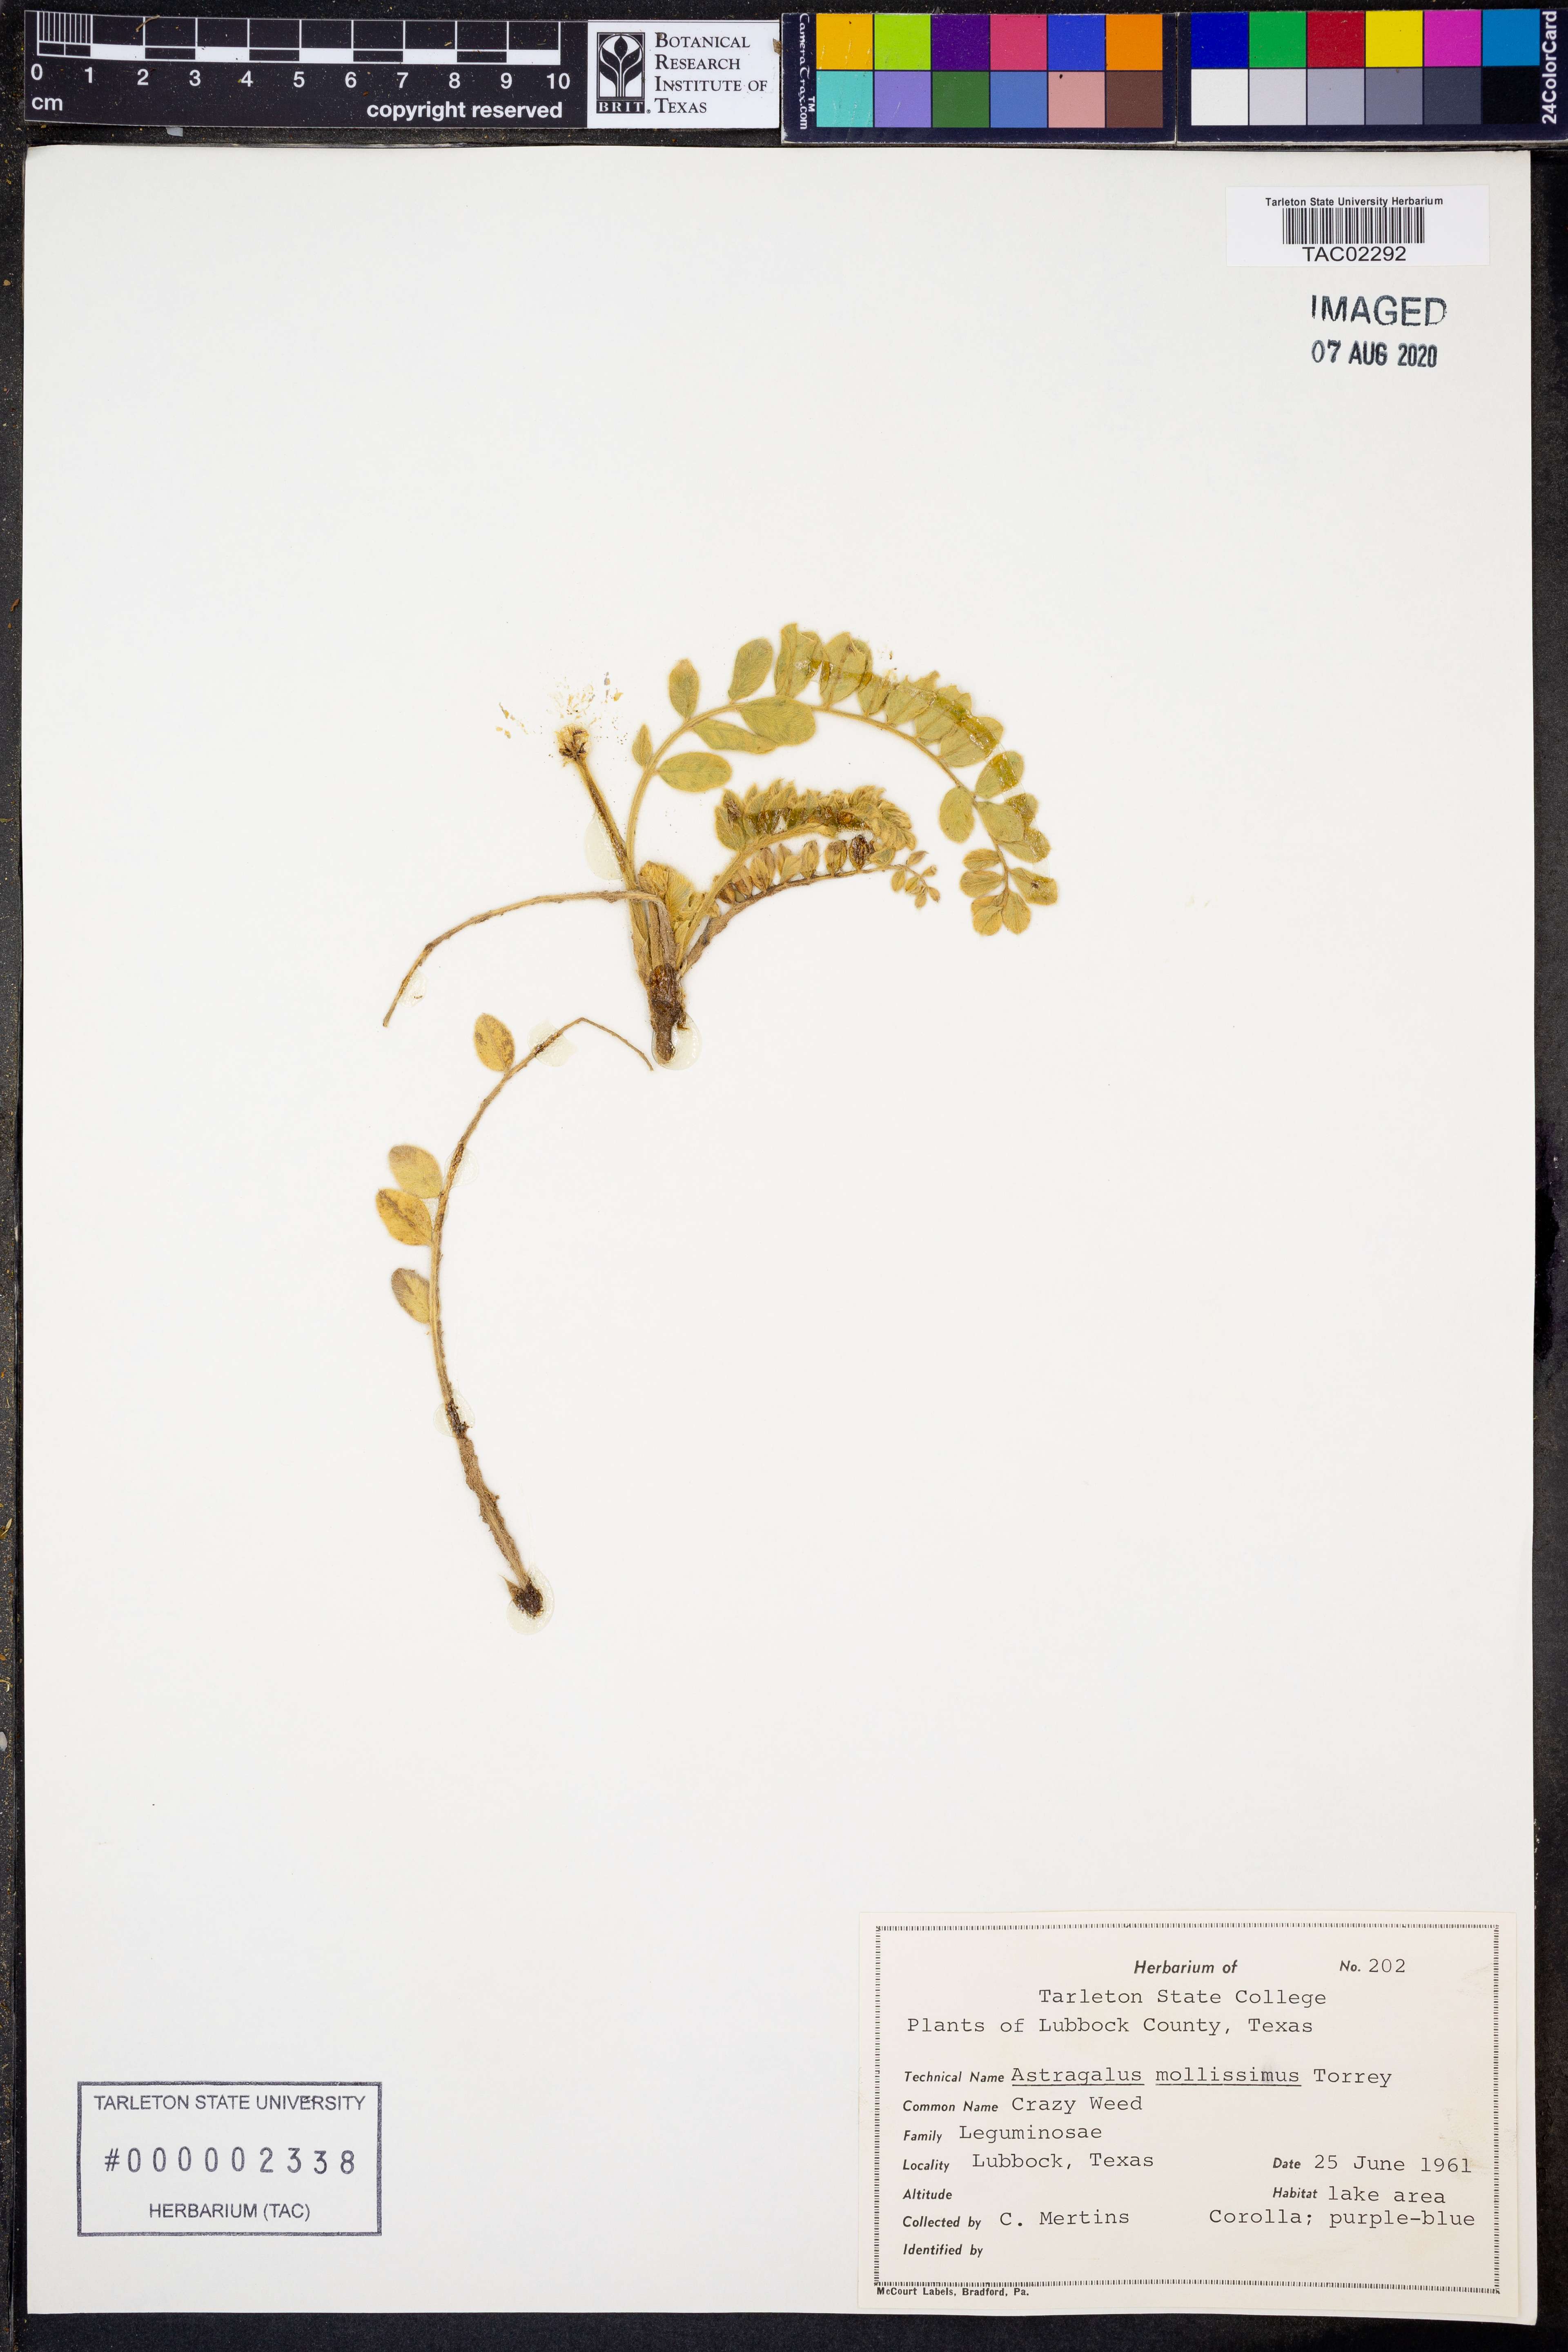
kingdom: Plantae
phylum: Tracheophyta
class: Magnoliopsida
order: Fabales
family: Fabaceae
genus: Astragalus
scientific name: Astragalus mollissimus
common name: Woolly locoweed
